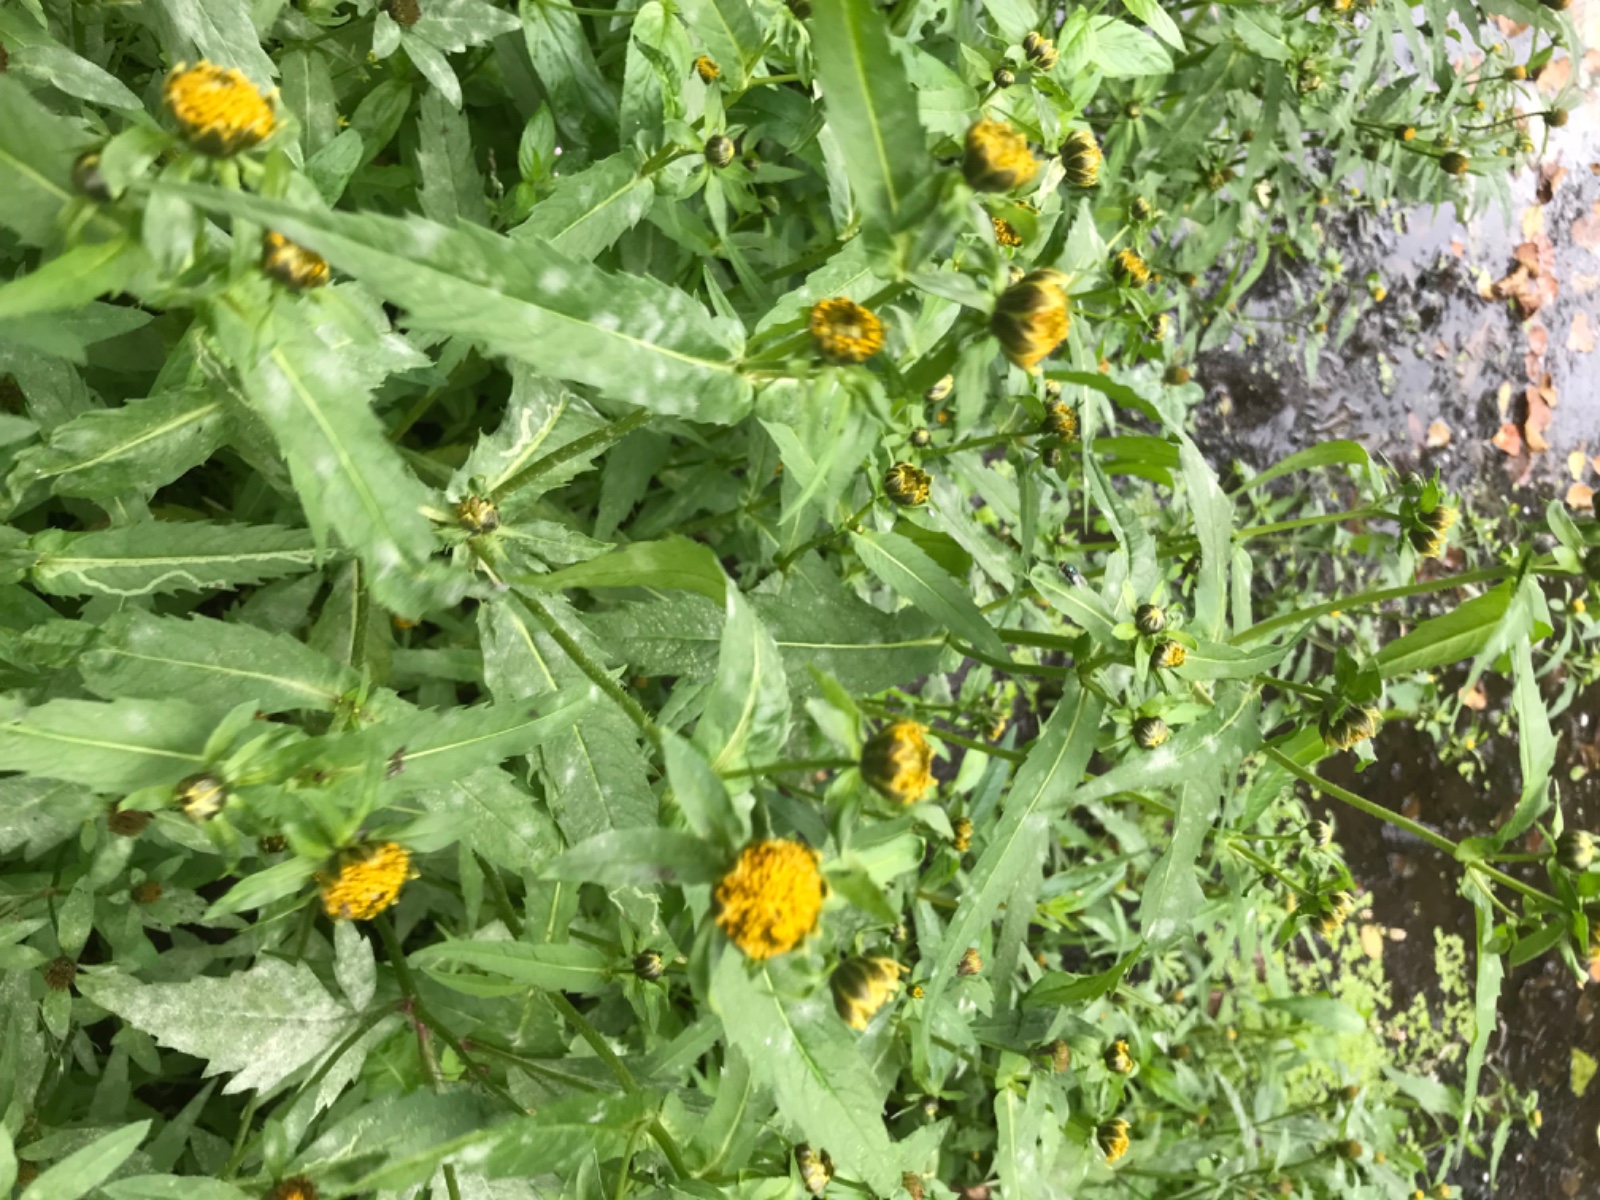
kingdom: Fungi
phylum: Ascomycota
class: Leotiomycetes
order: Helotiales
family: Erysiphaceae
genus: Podosphaera
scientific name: Podosphaera fusca
